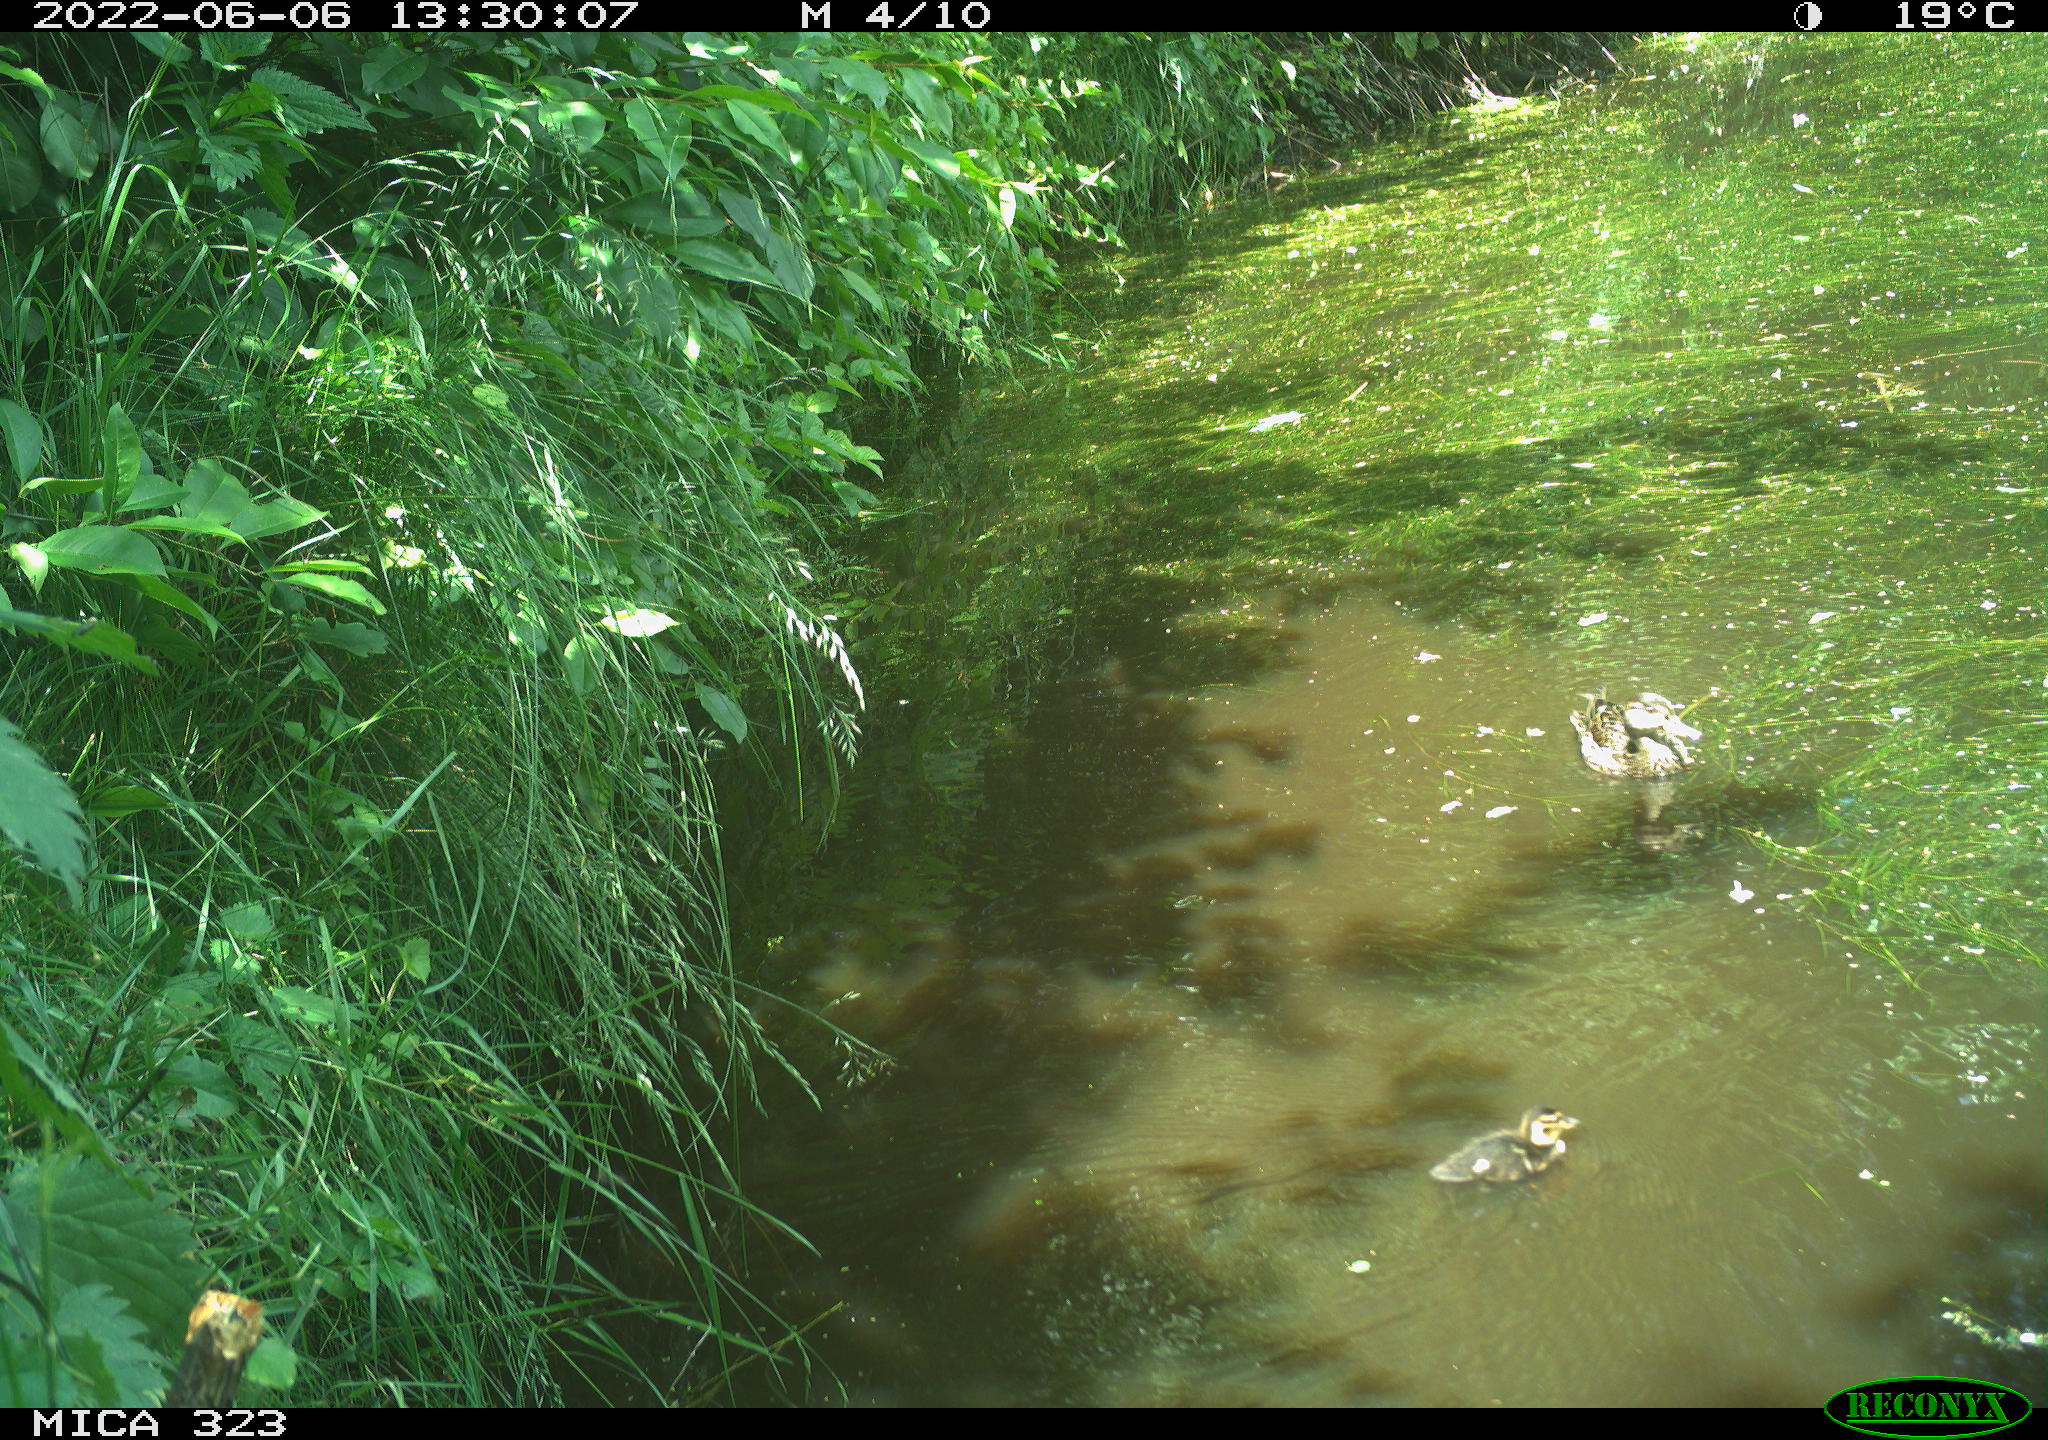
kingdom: Animalia
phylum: Chordata
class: Aves
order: Anseriformes
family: Anatidae
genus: Anas
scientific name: Anas platyrhynchos
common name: Mallard
